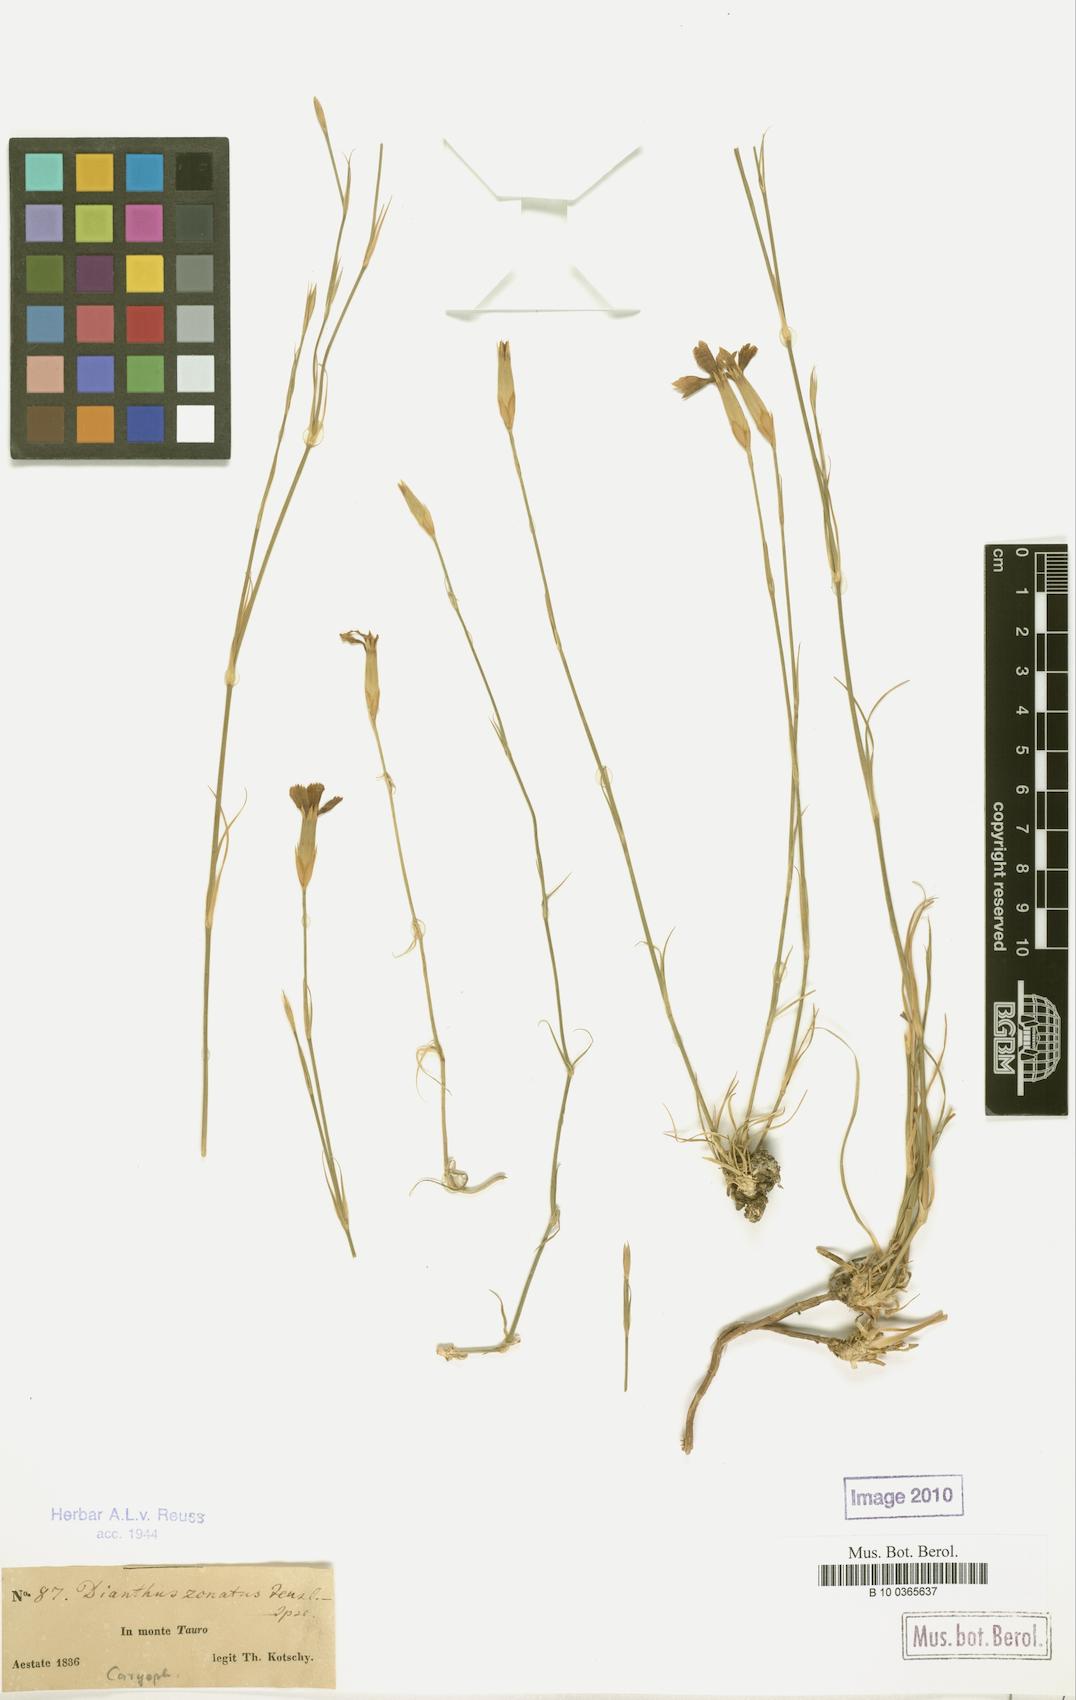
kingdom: Plantae
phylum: Tracheophyta
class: Magnoliopsida
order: Caryophyllales
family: Caryophyllaceae
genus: Dianthus
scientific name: Dianthus zonatus
